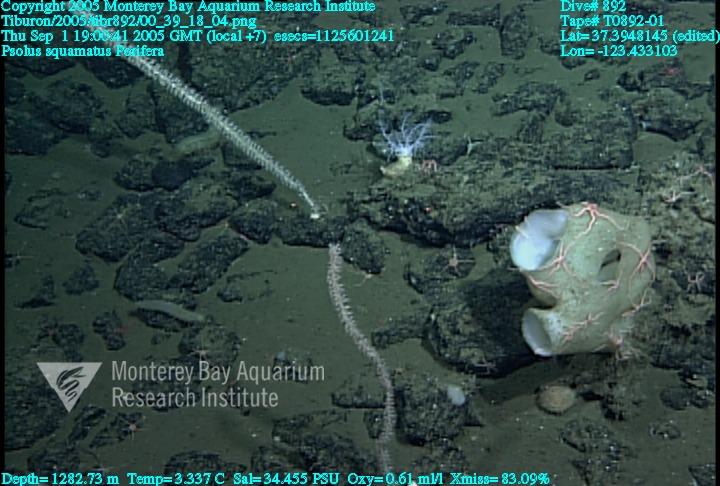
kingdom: Animalia
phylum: Porifera
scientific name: Porifera
